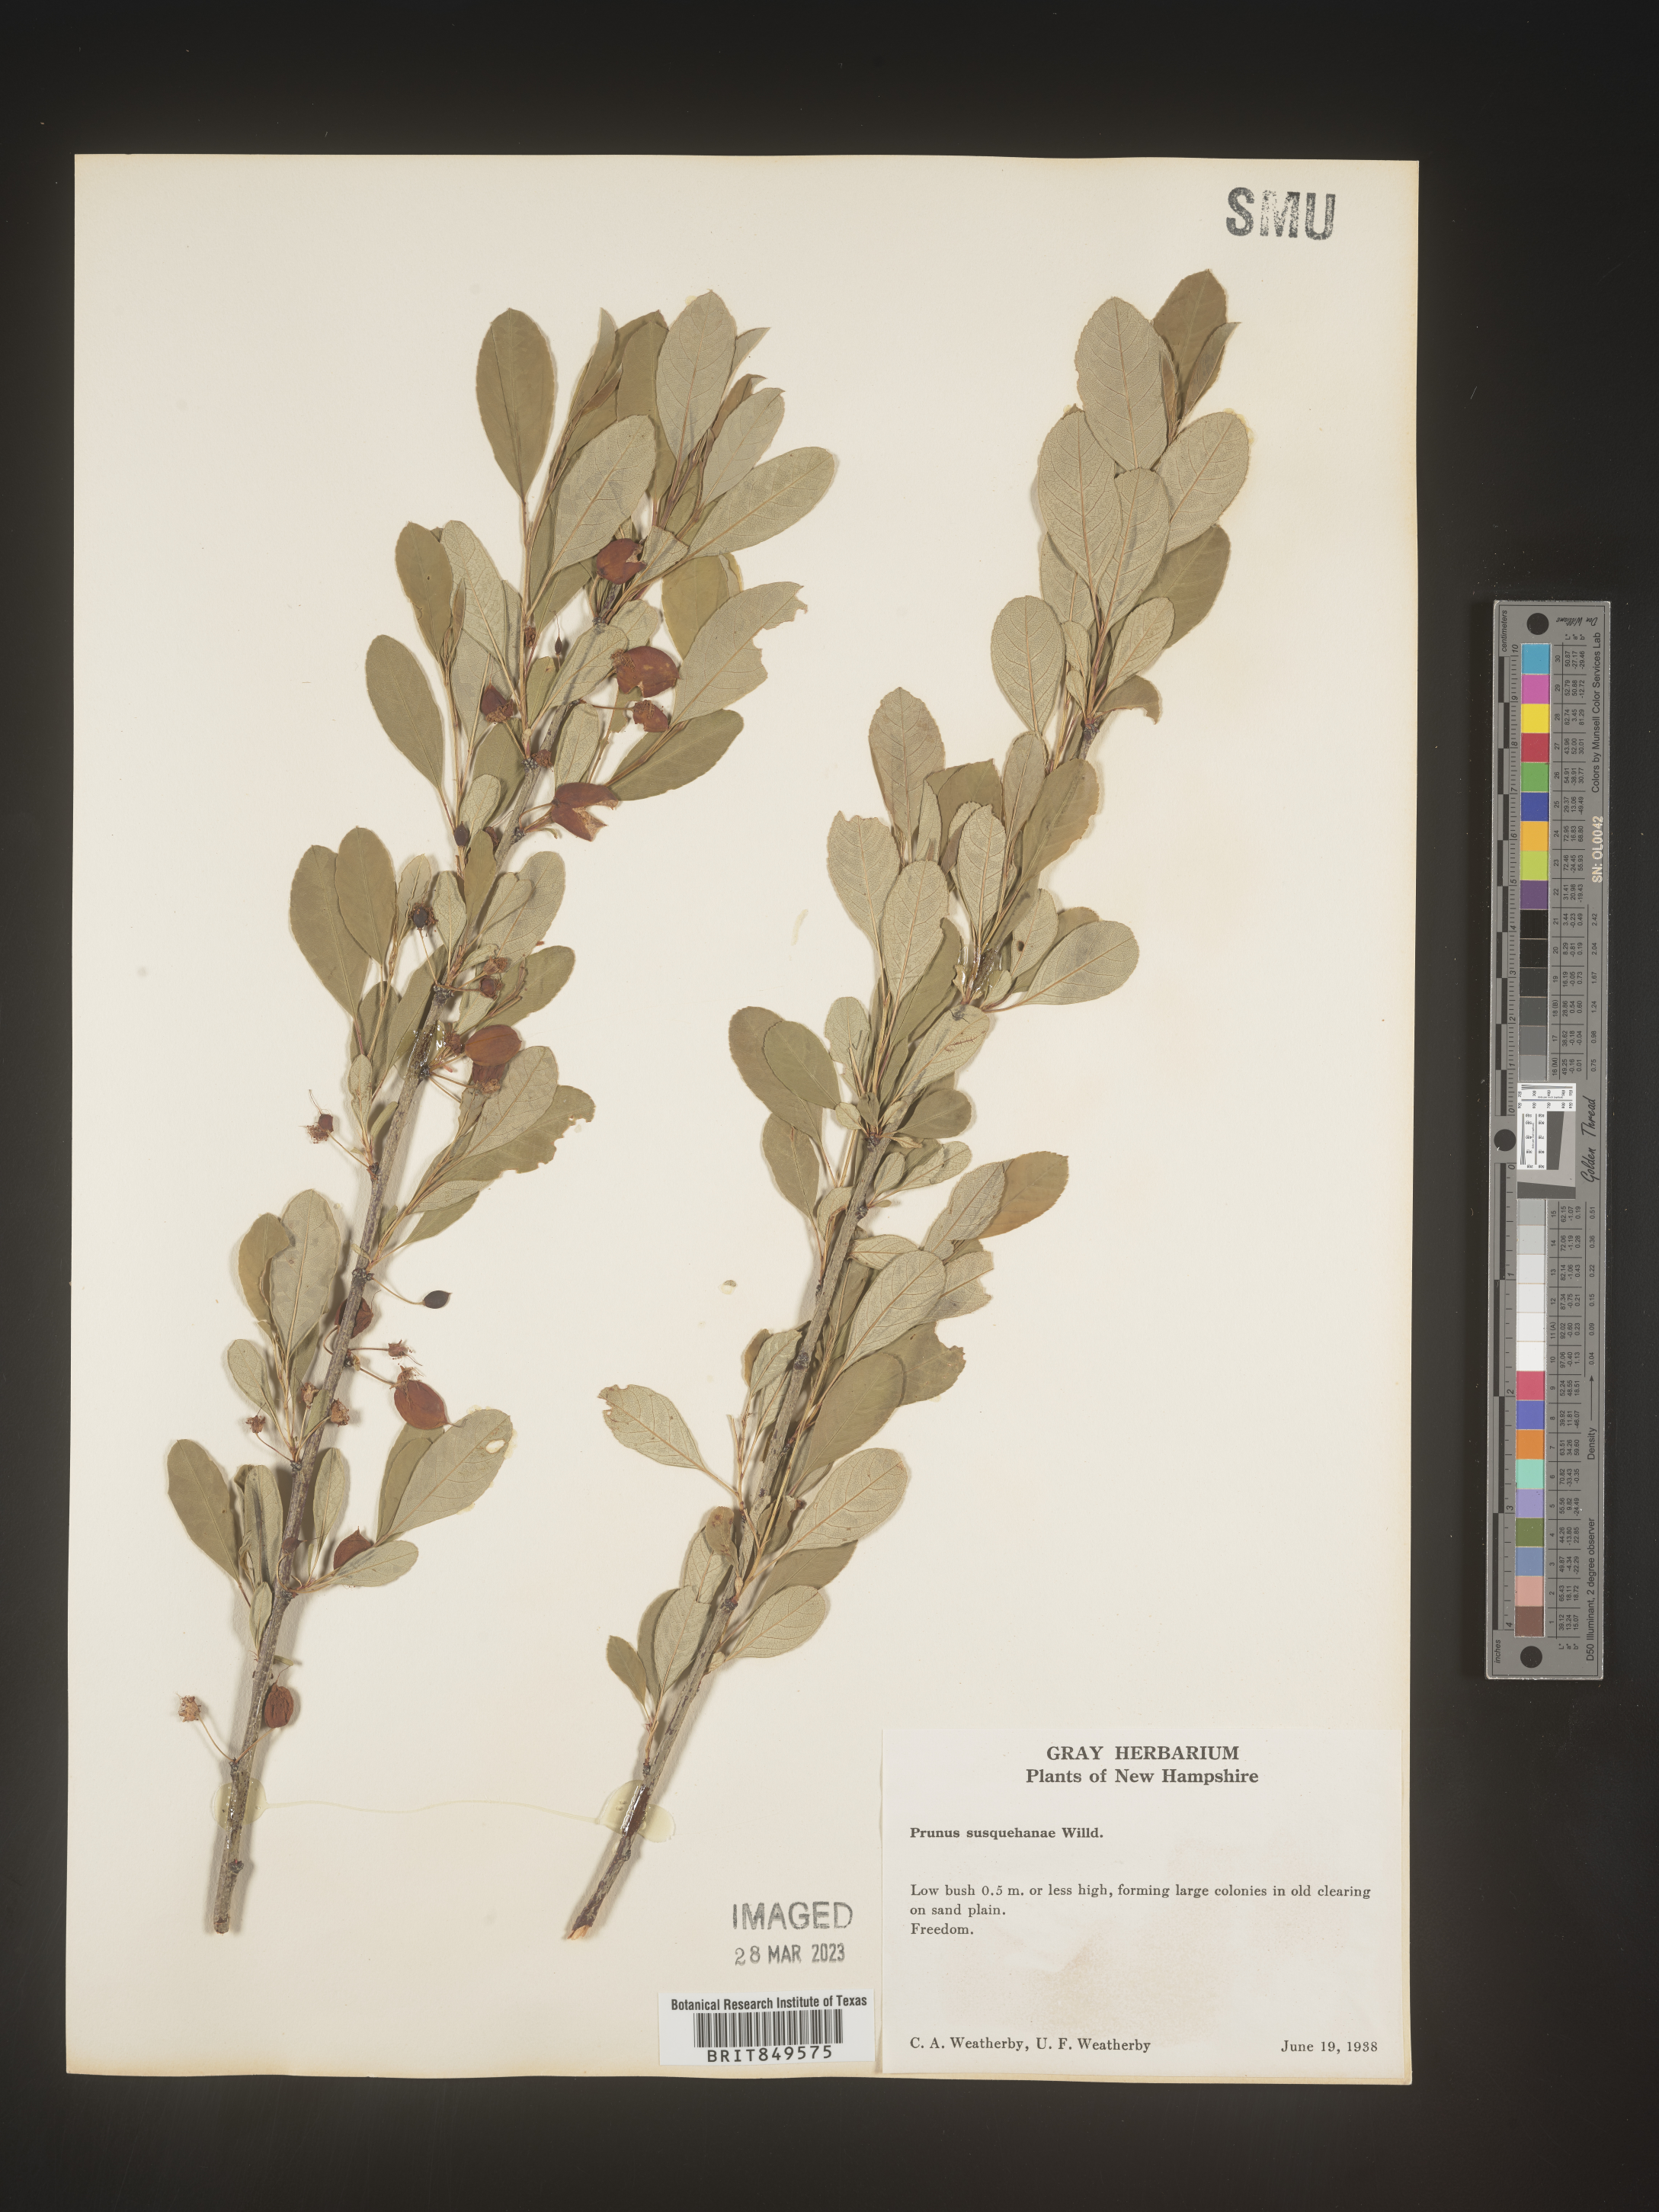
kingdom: Plantae
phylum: Tracheophyta
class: Magnoliopsida
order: Rosales
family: Rosaceae
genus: Prunus
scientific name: Prunus
